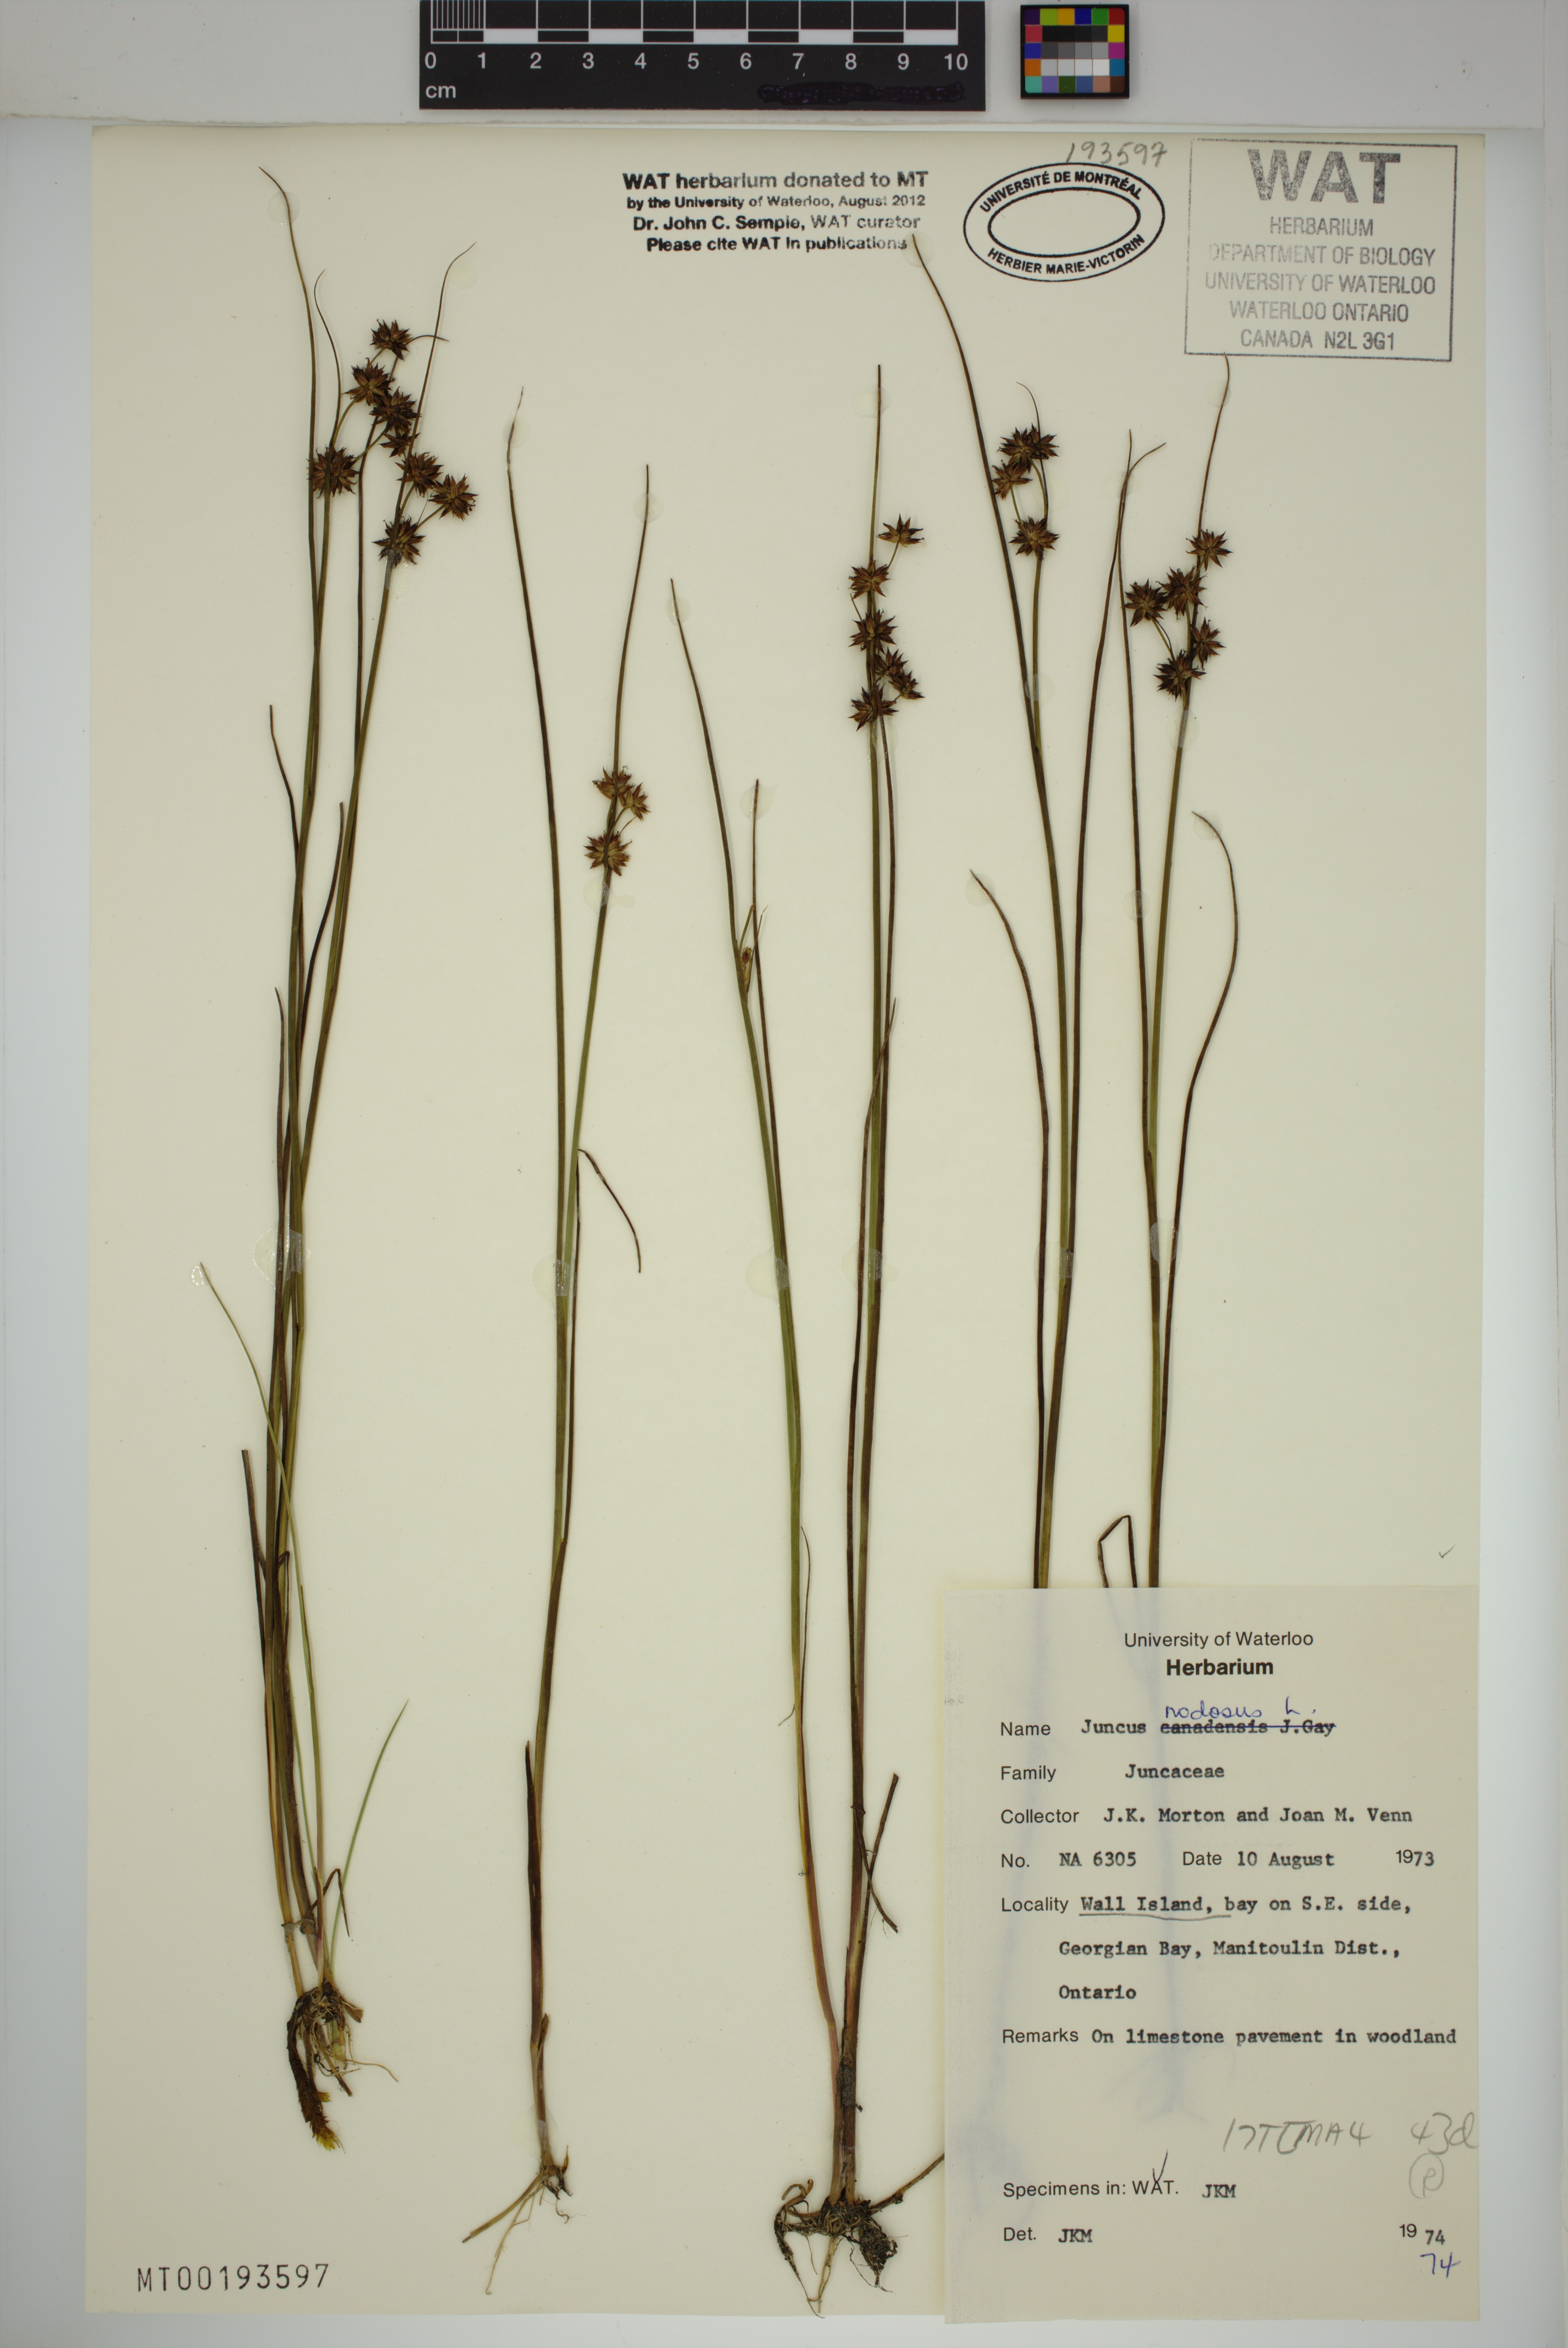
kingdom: Plantae
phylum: Tracheophyta
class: Liliopsida
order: Poales
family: Juncaceae
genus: Juncus
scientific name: Juncus nodosus
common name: Knotted rush
